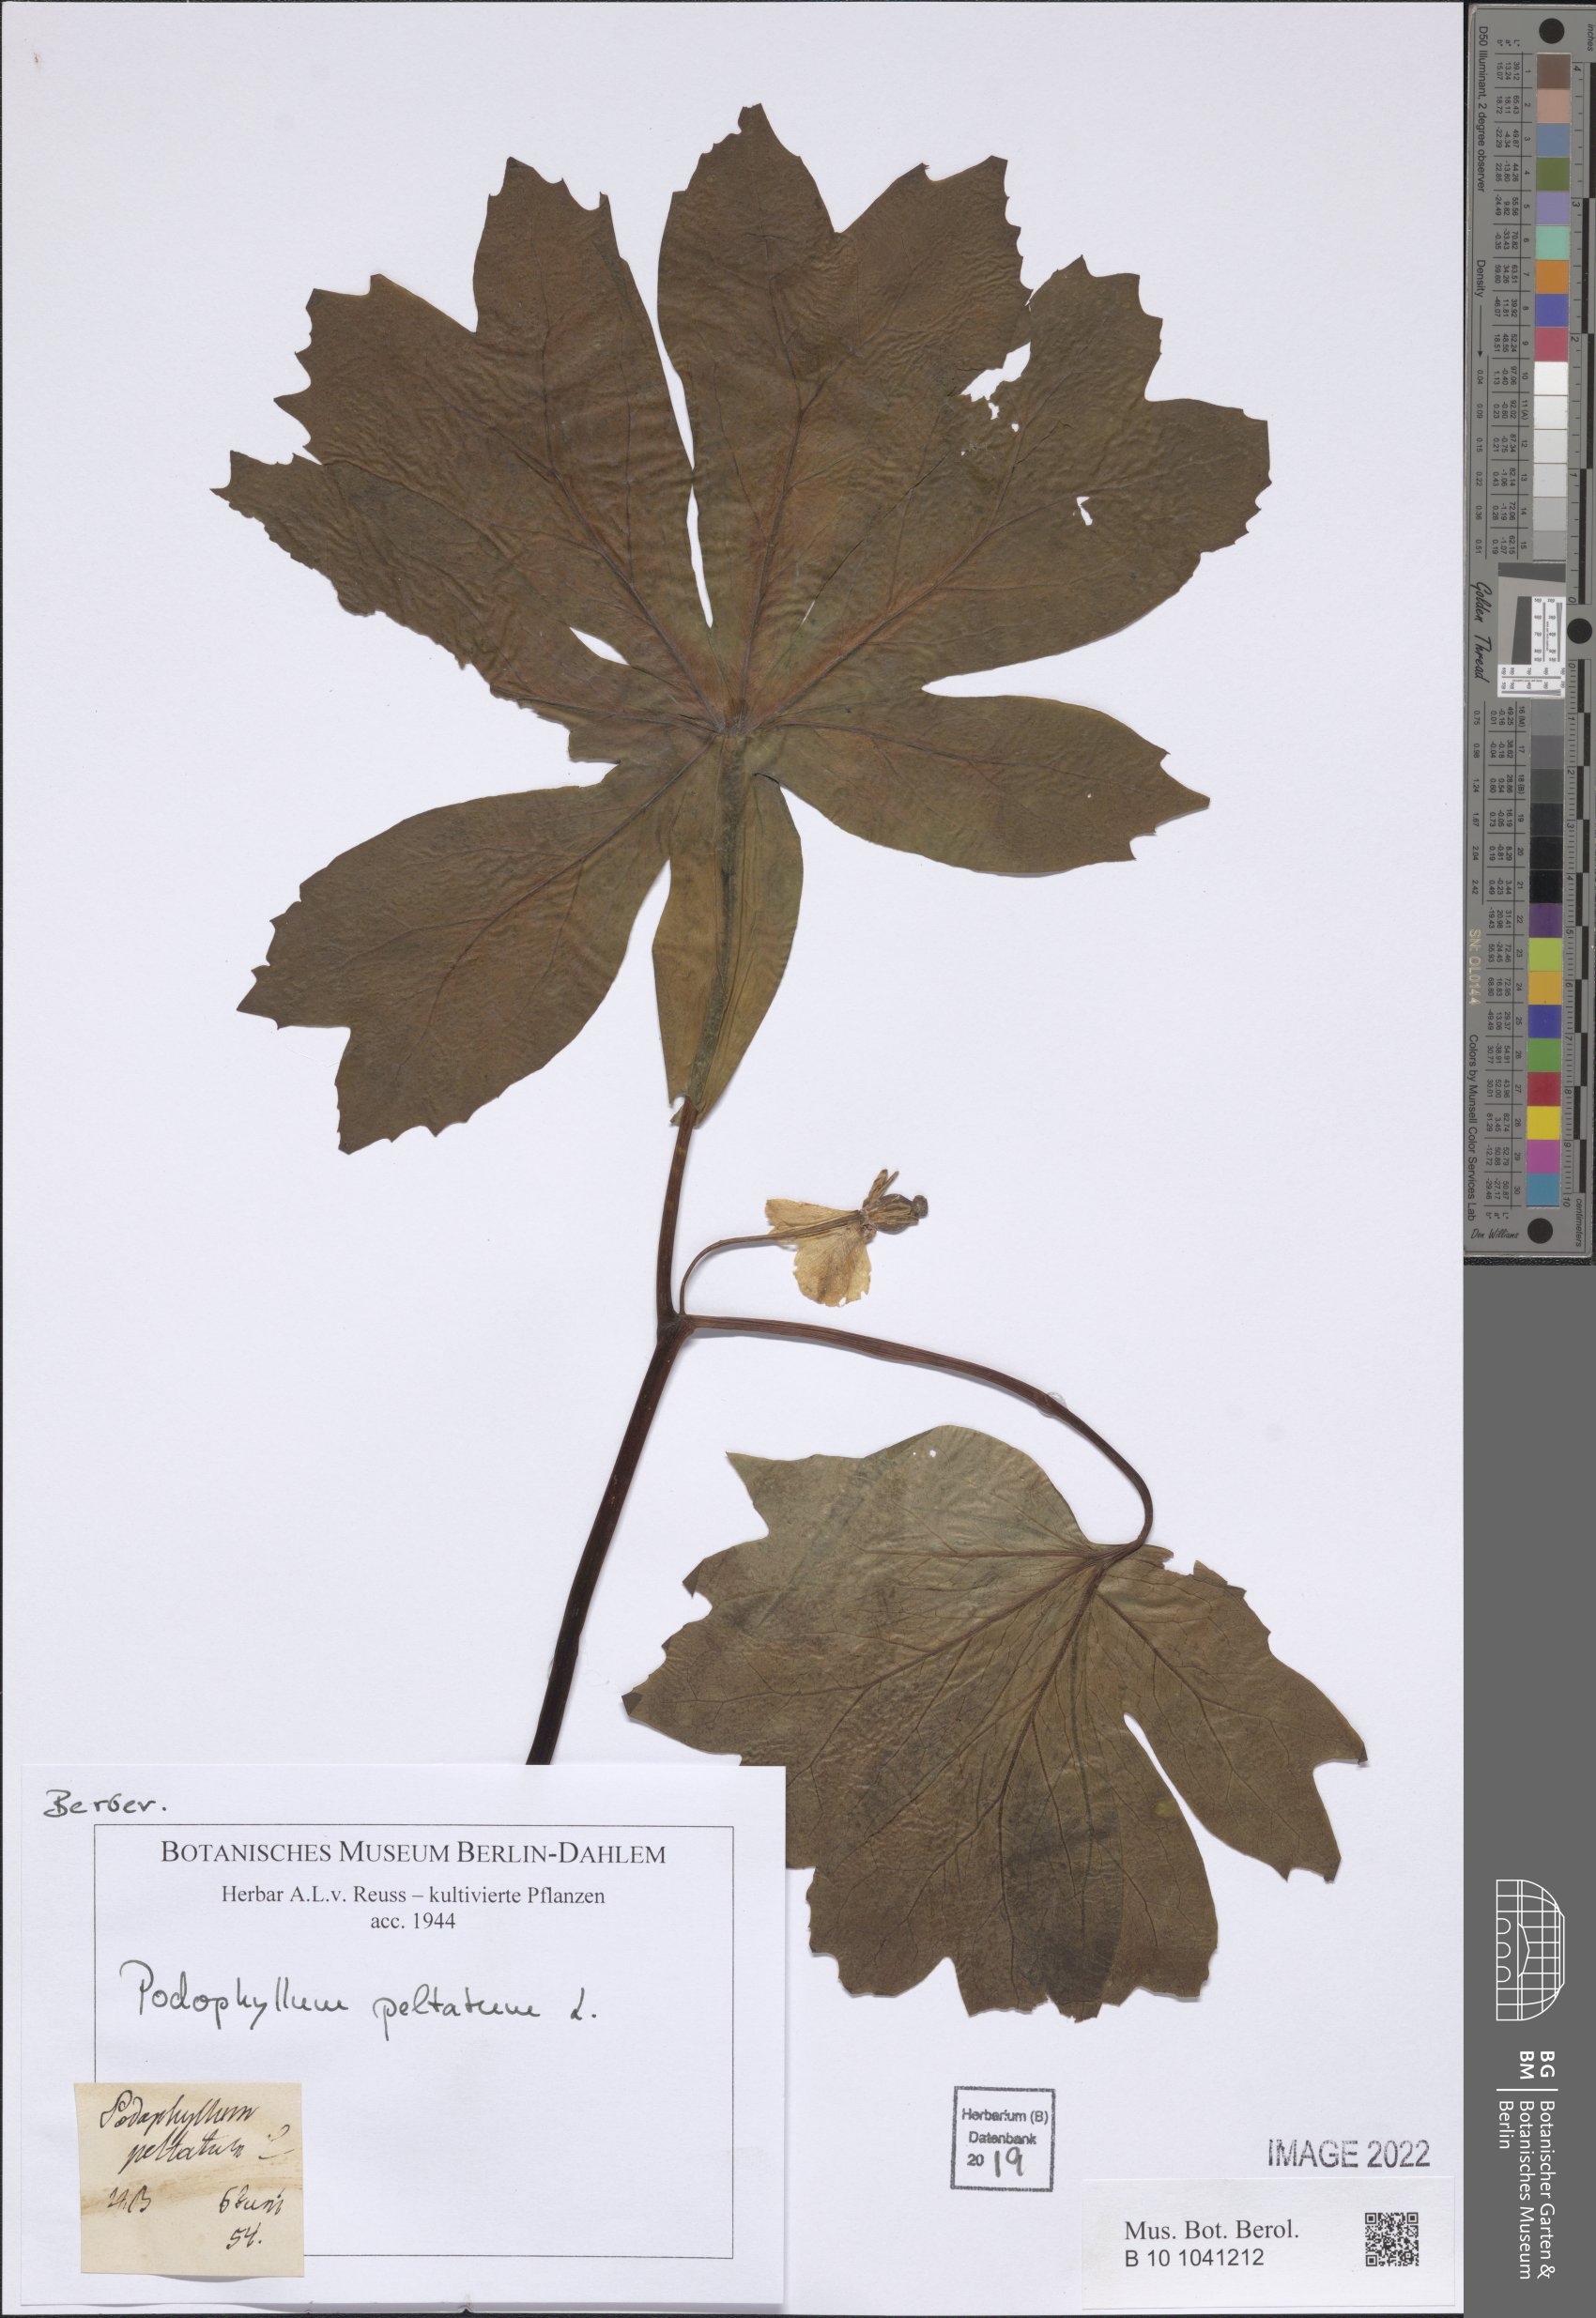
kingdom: Plantae
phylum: Tracheophyta
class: Magnoliopsida
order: Ranunculales
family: Berberidaceae
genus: Podophyllum
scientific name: Podophyllum peltatum
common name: Wild mandrake
